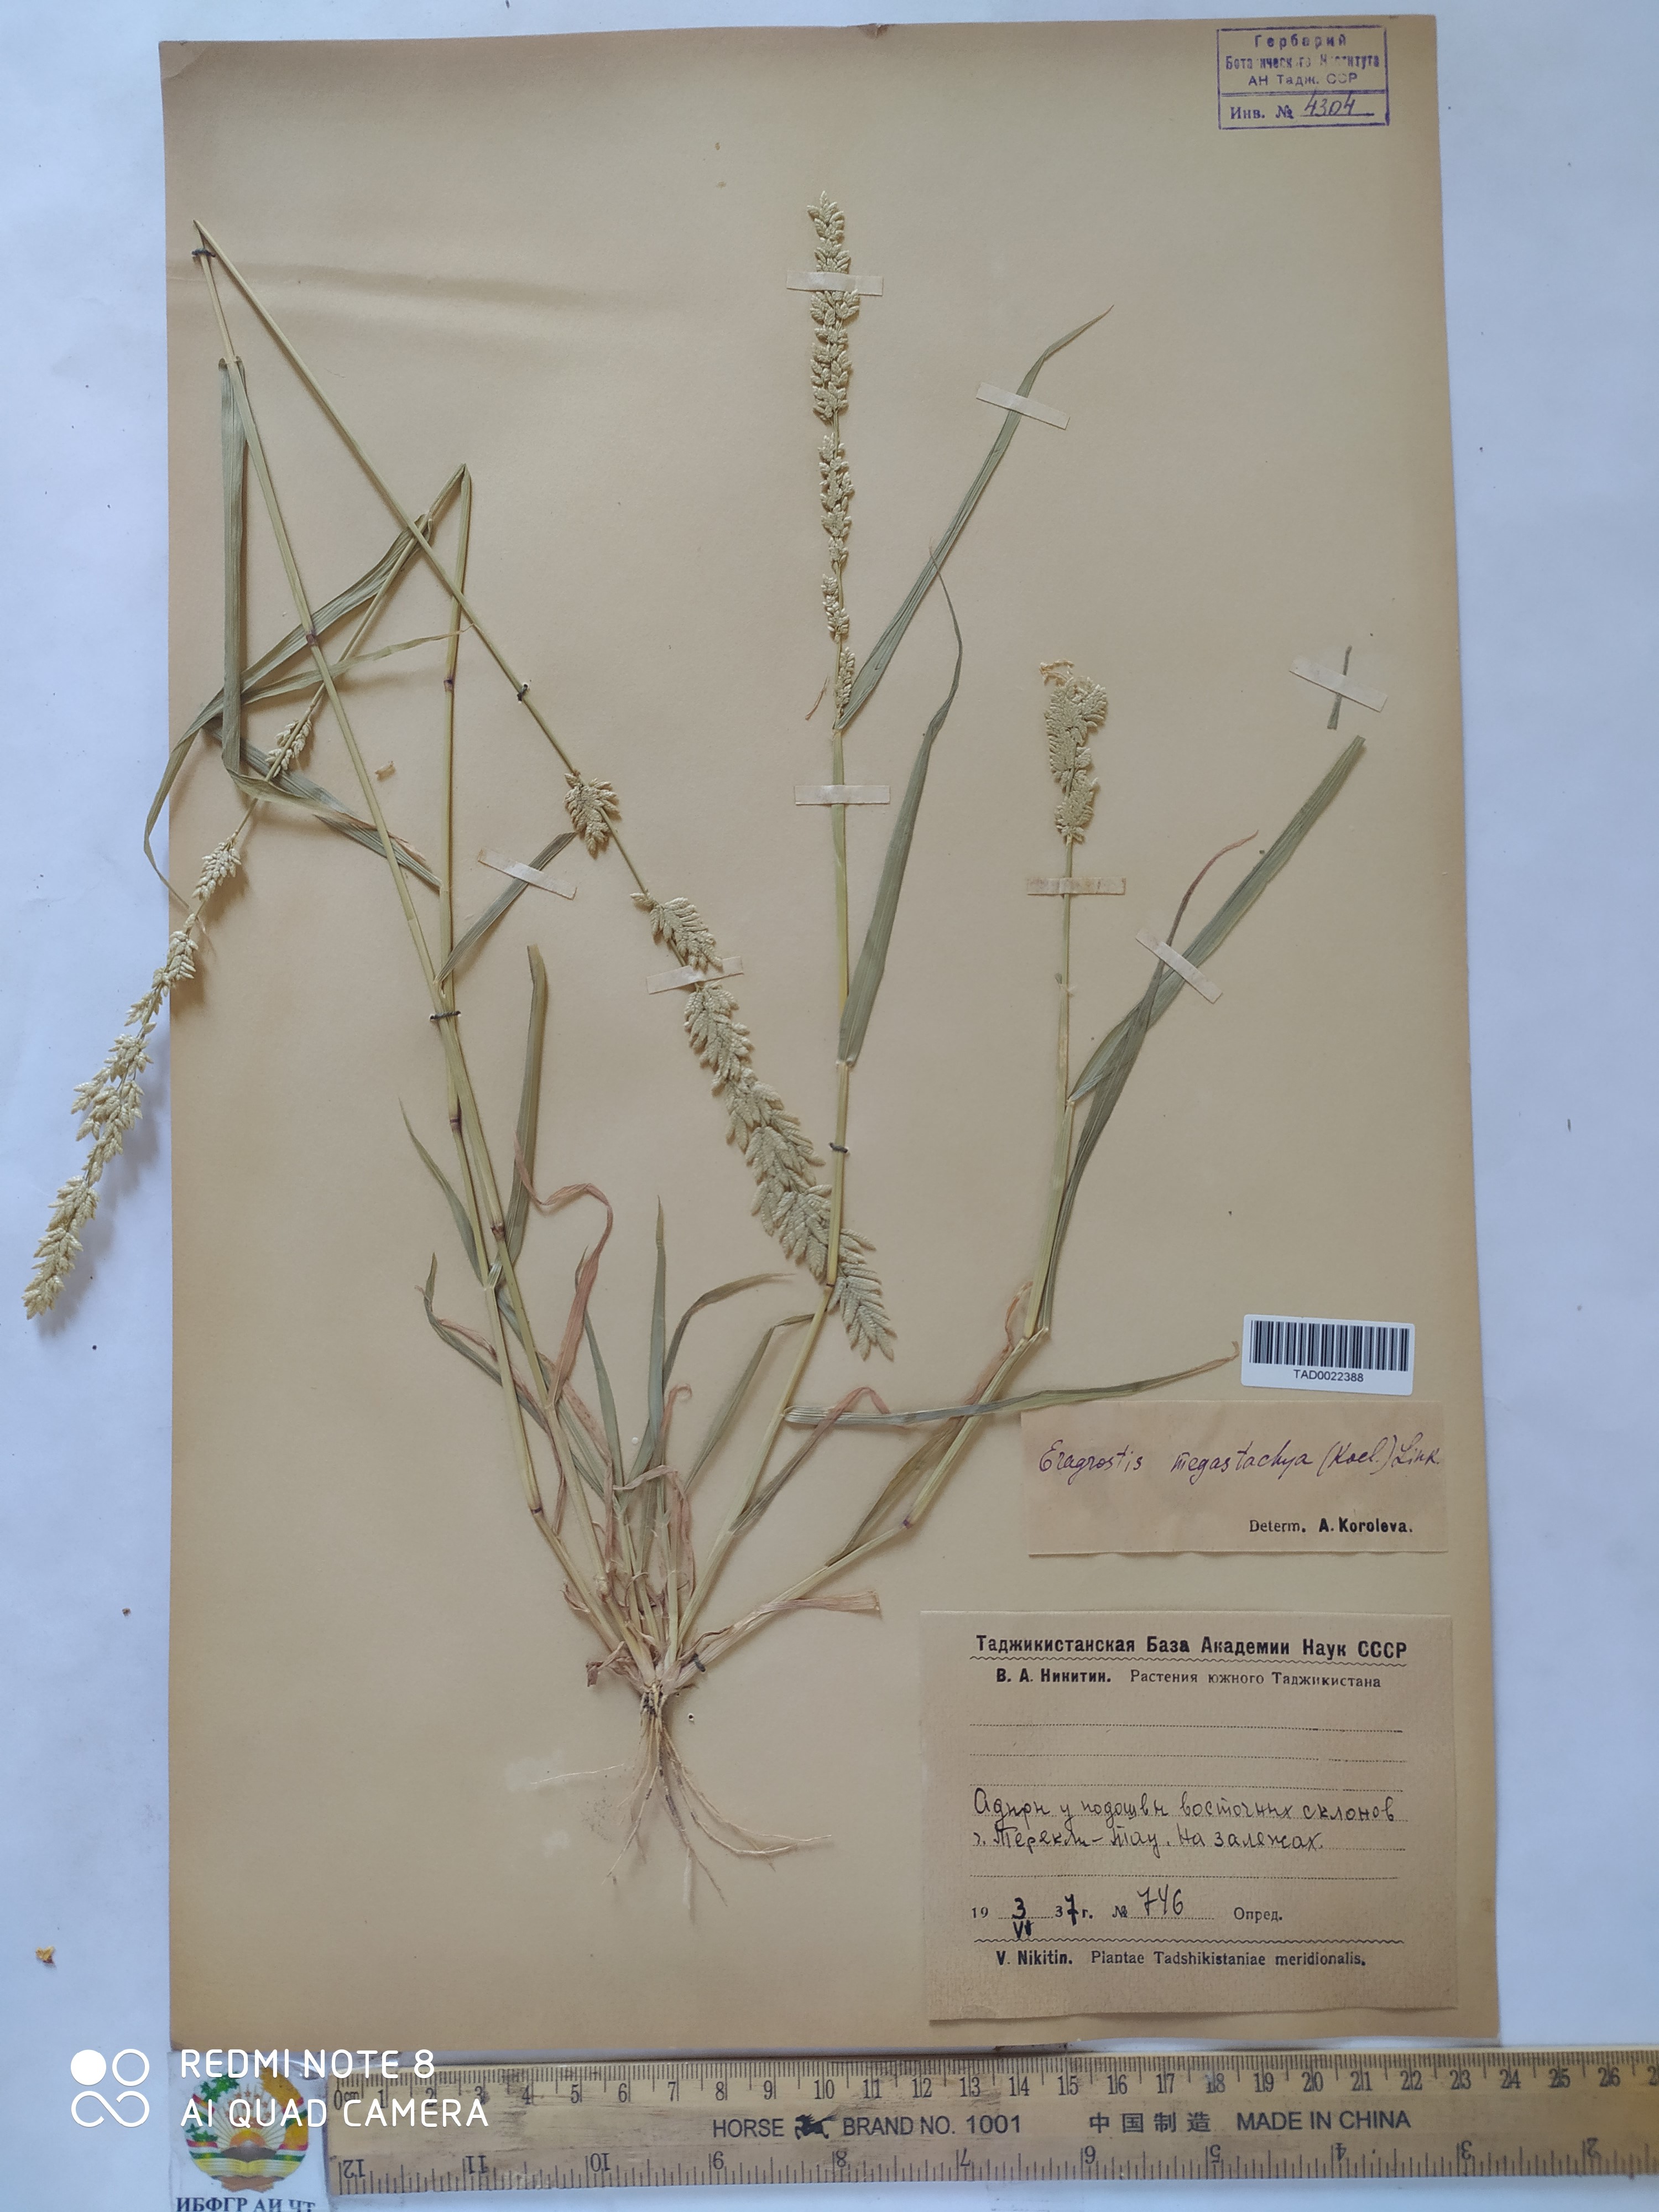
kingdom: Plantae
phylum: Tracheophyta
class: Liliopsida
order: Poales
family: Poaceae
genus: Eragrostis
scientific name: Eragrostis cilianensis
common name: Stinkgrass
